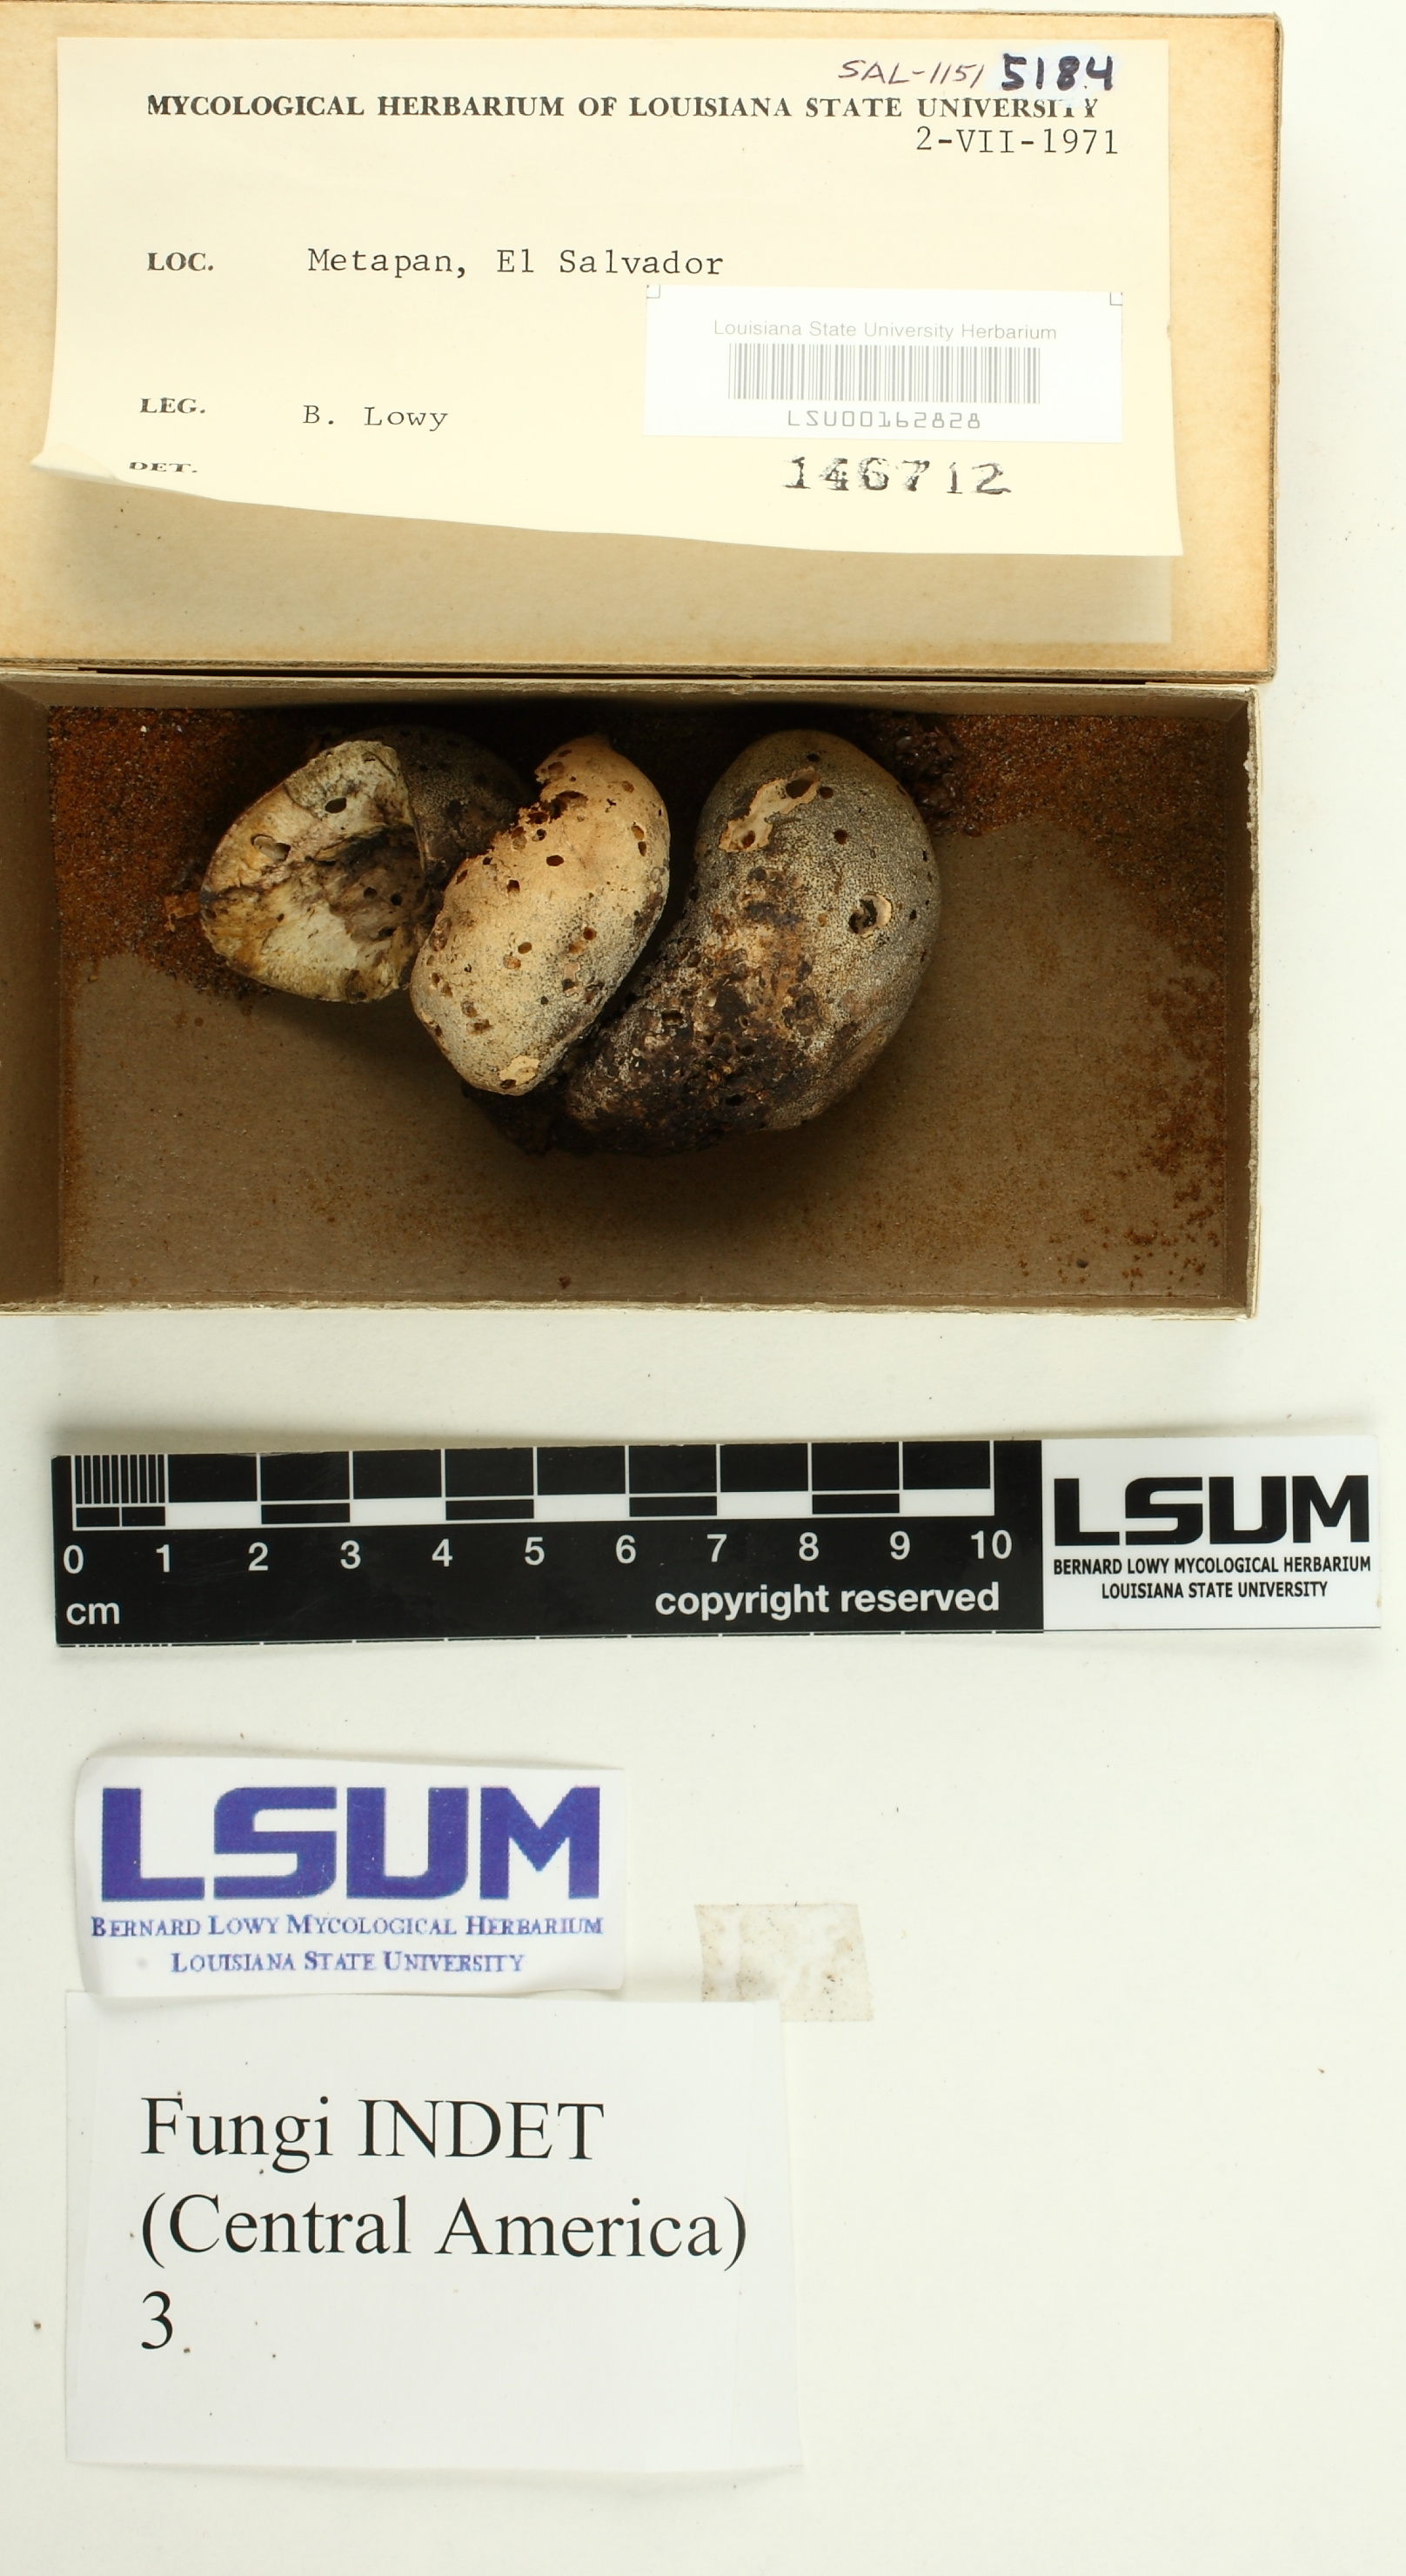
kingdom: Fungi
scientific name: Fungi
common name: Fungi
